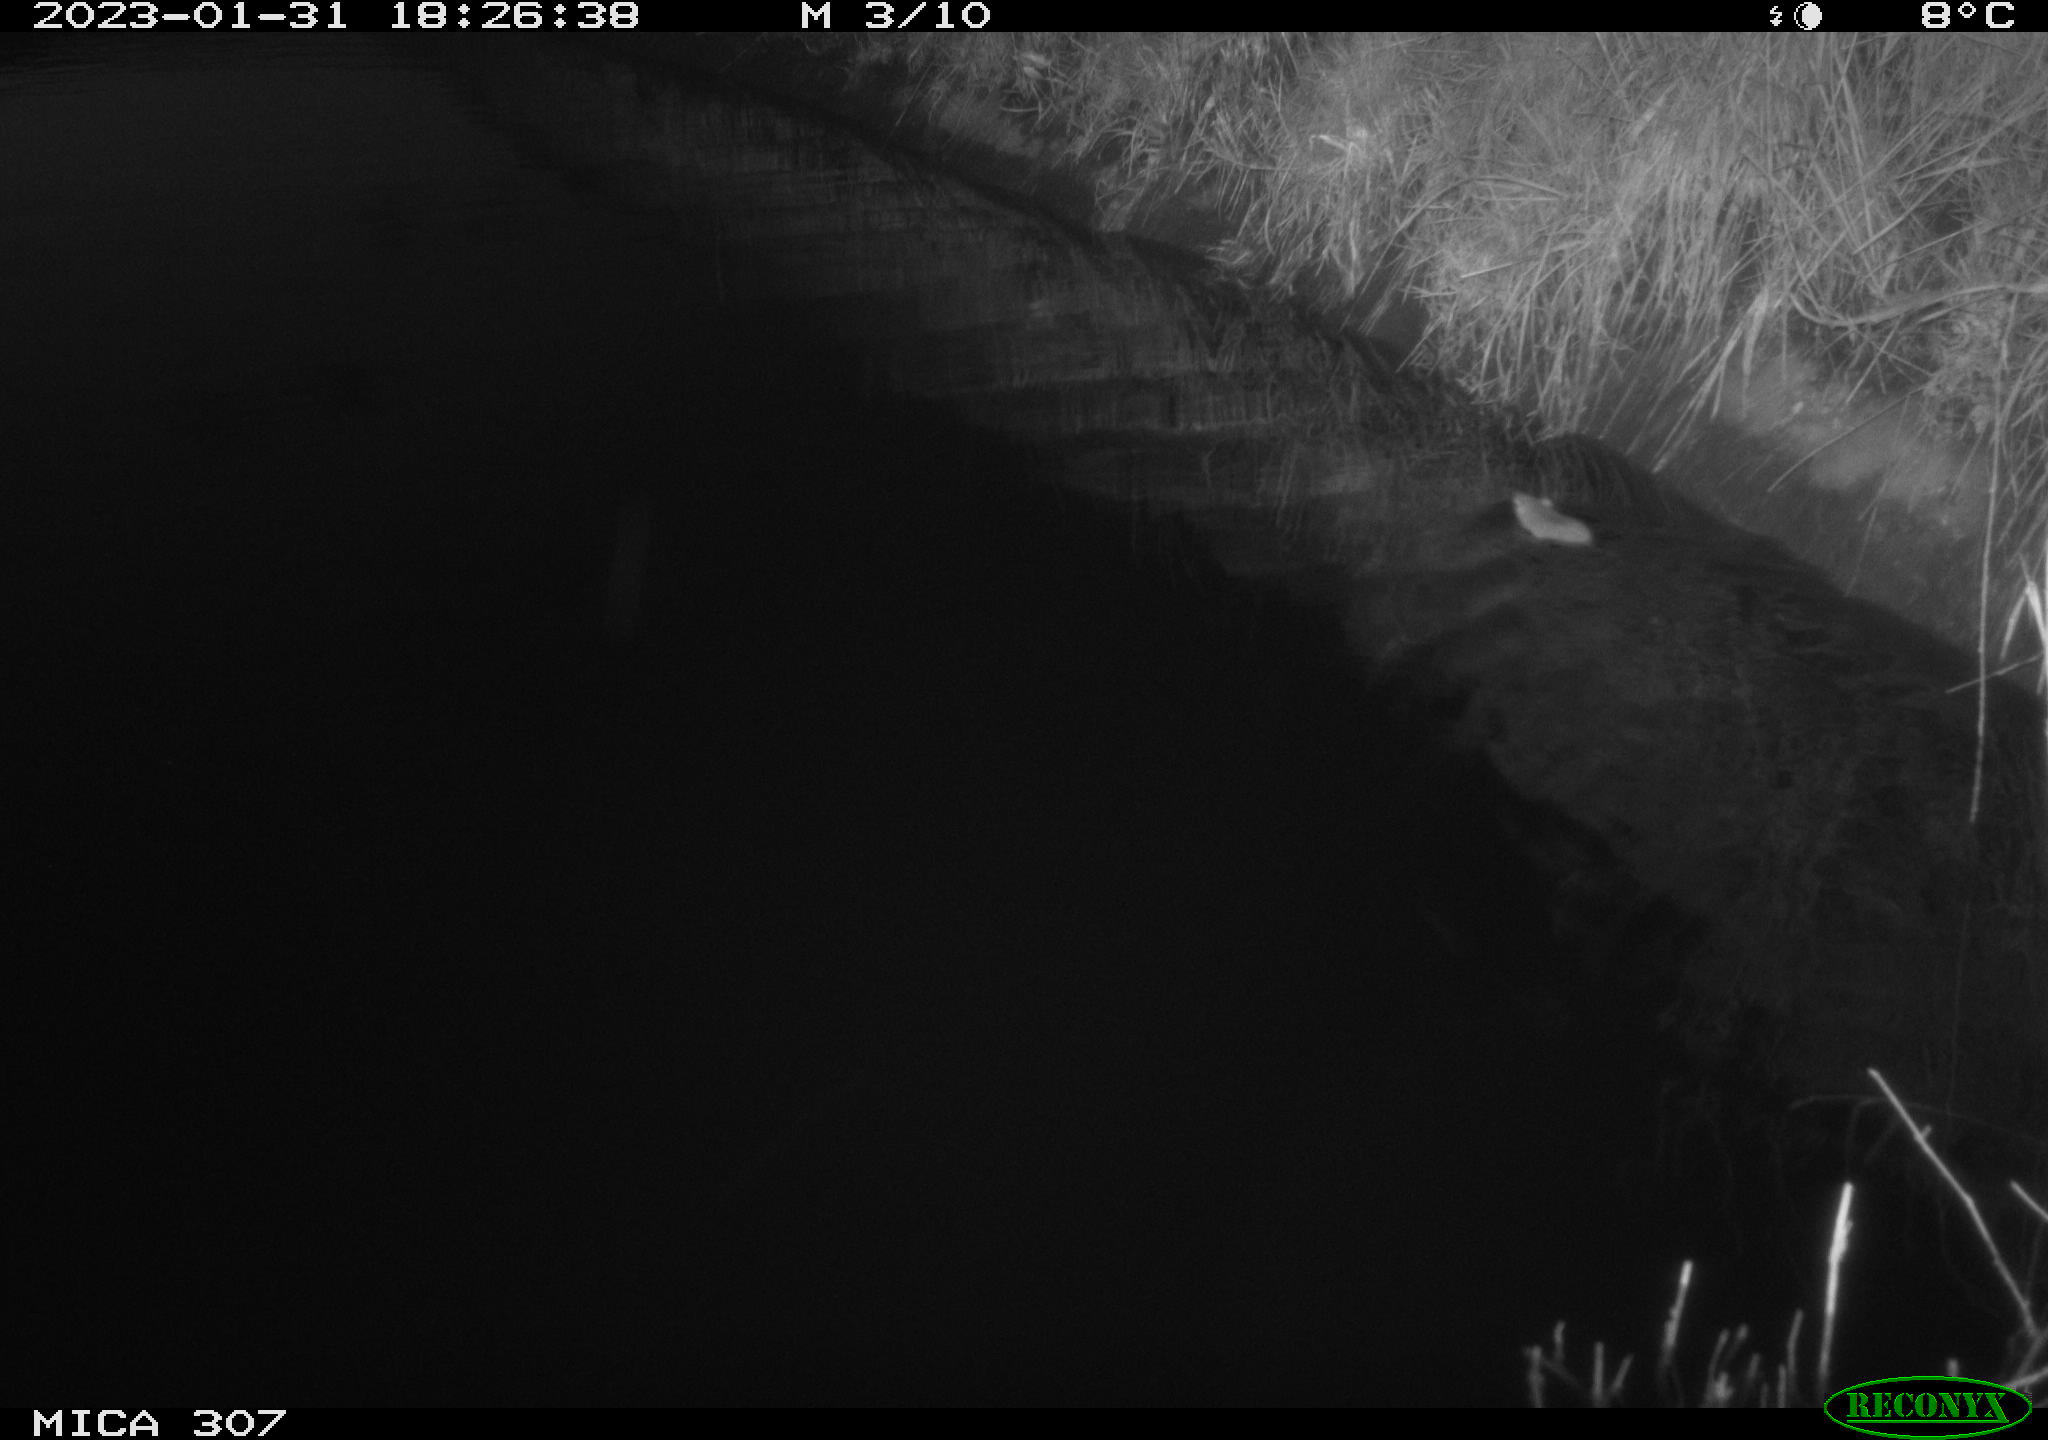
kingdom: Animalia
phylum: Chordata
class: Mammalia
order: Rodentia
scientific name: Rodentia
